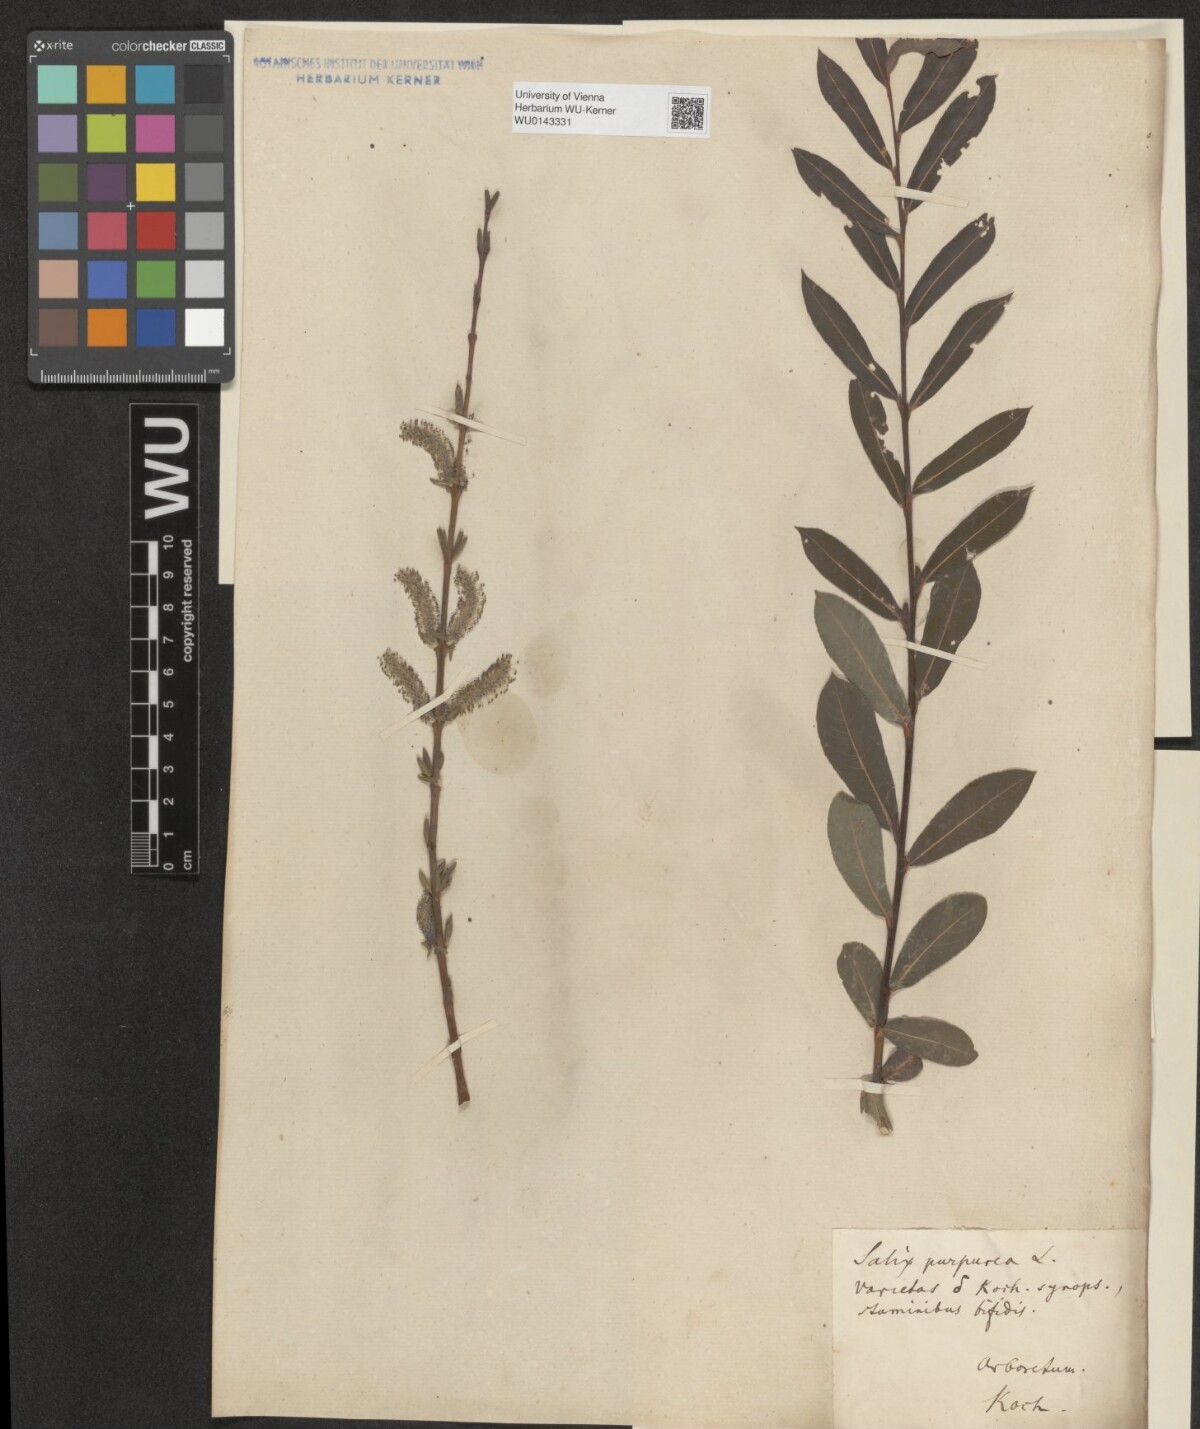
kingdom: Plantae
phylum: Tracheophyta
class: Magnoliopsida
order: Malpighiales
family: Salicaceae
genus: Salix
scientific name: Salix purpurea
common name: Purple willow
